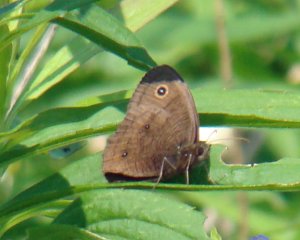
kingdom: Animalia
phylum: Arthropoda
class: Insecta
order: Lepidoptera
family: Nymphalidae
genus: Cercyonis
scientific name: Cercyonis pegala
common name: Common Wood-Nymph
